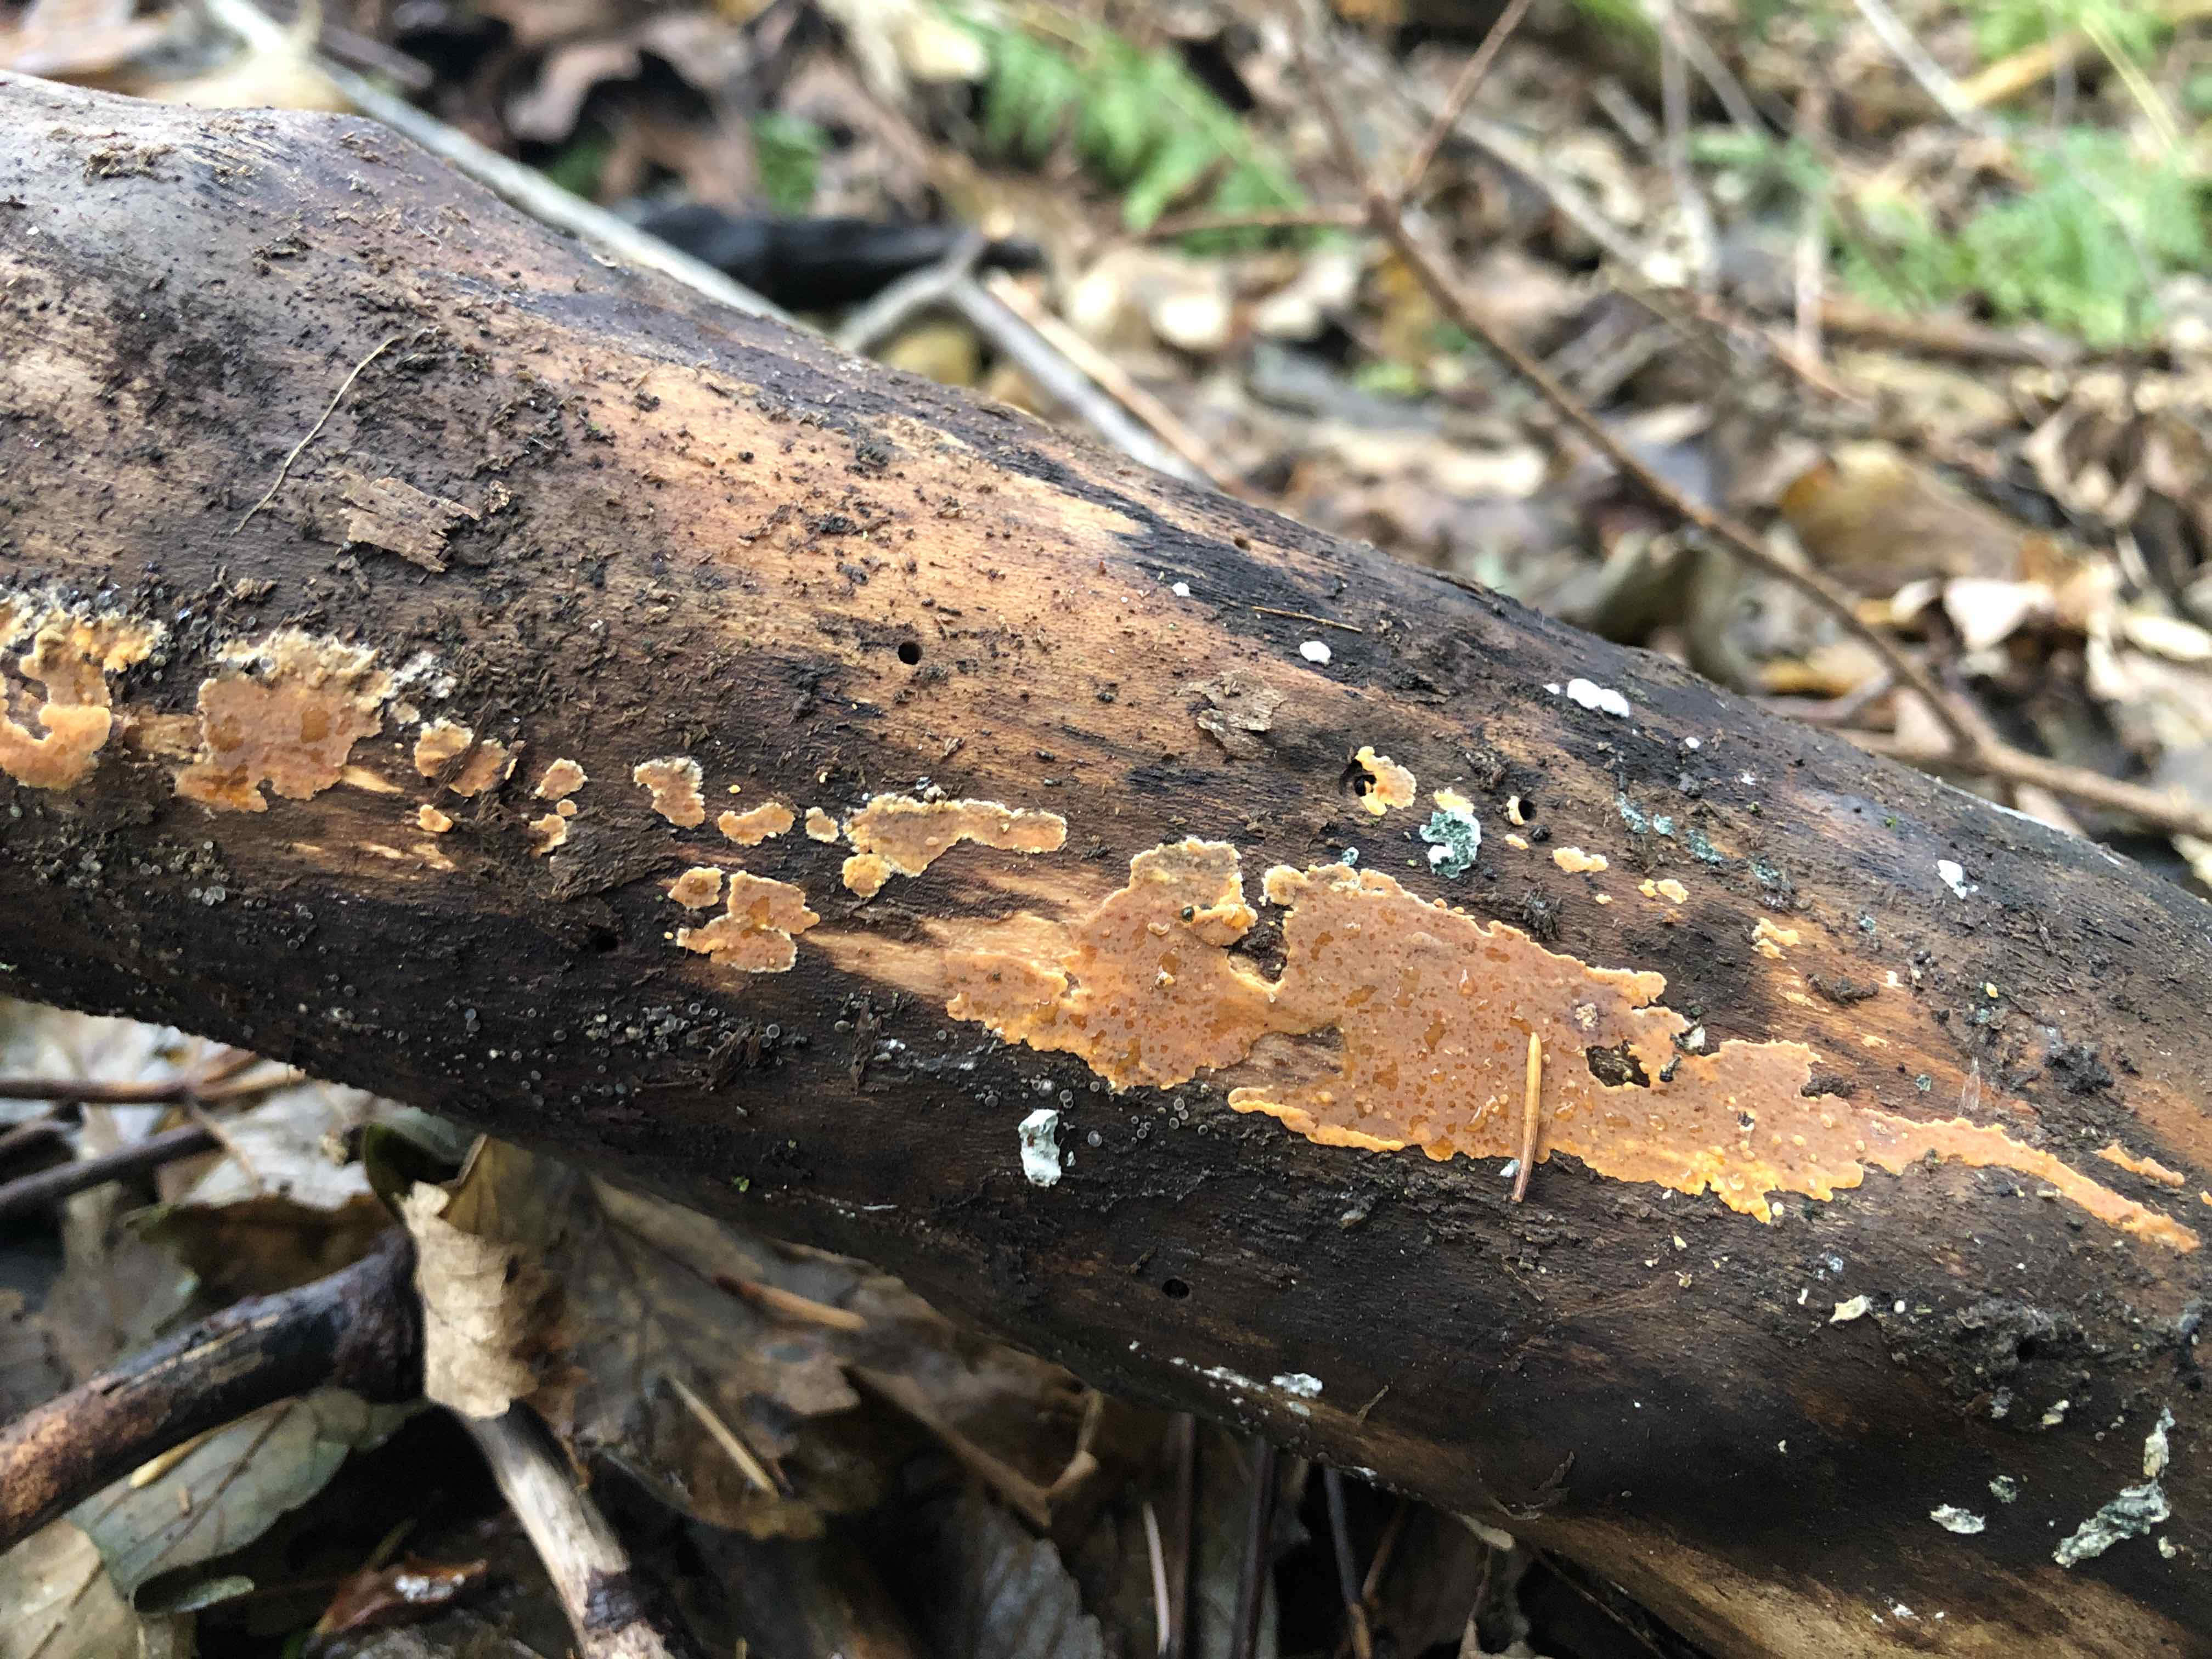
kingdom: Fungi
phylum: Basidiomycota
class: Agaricomycetes
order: Russulales
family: Peniophoraceae
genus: Peniophora
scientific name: Peniophora incarnata
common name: laksefarvet voksskind
